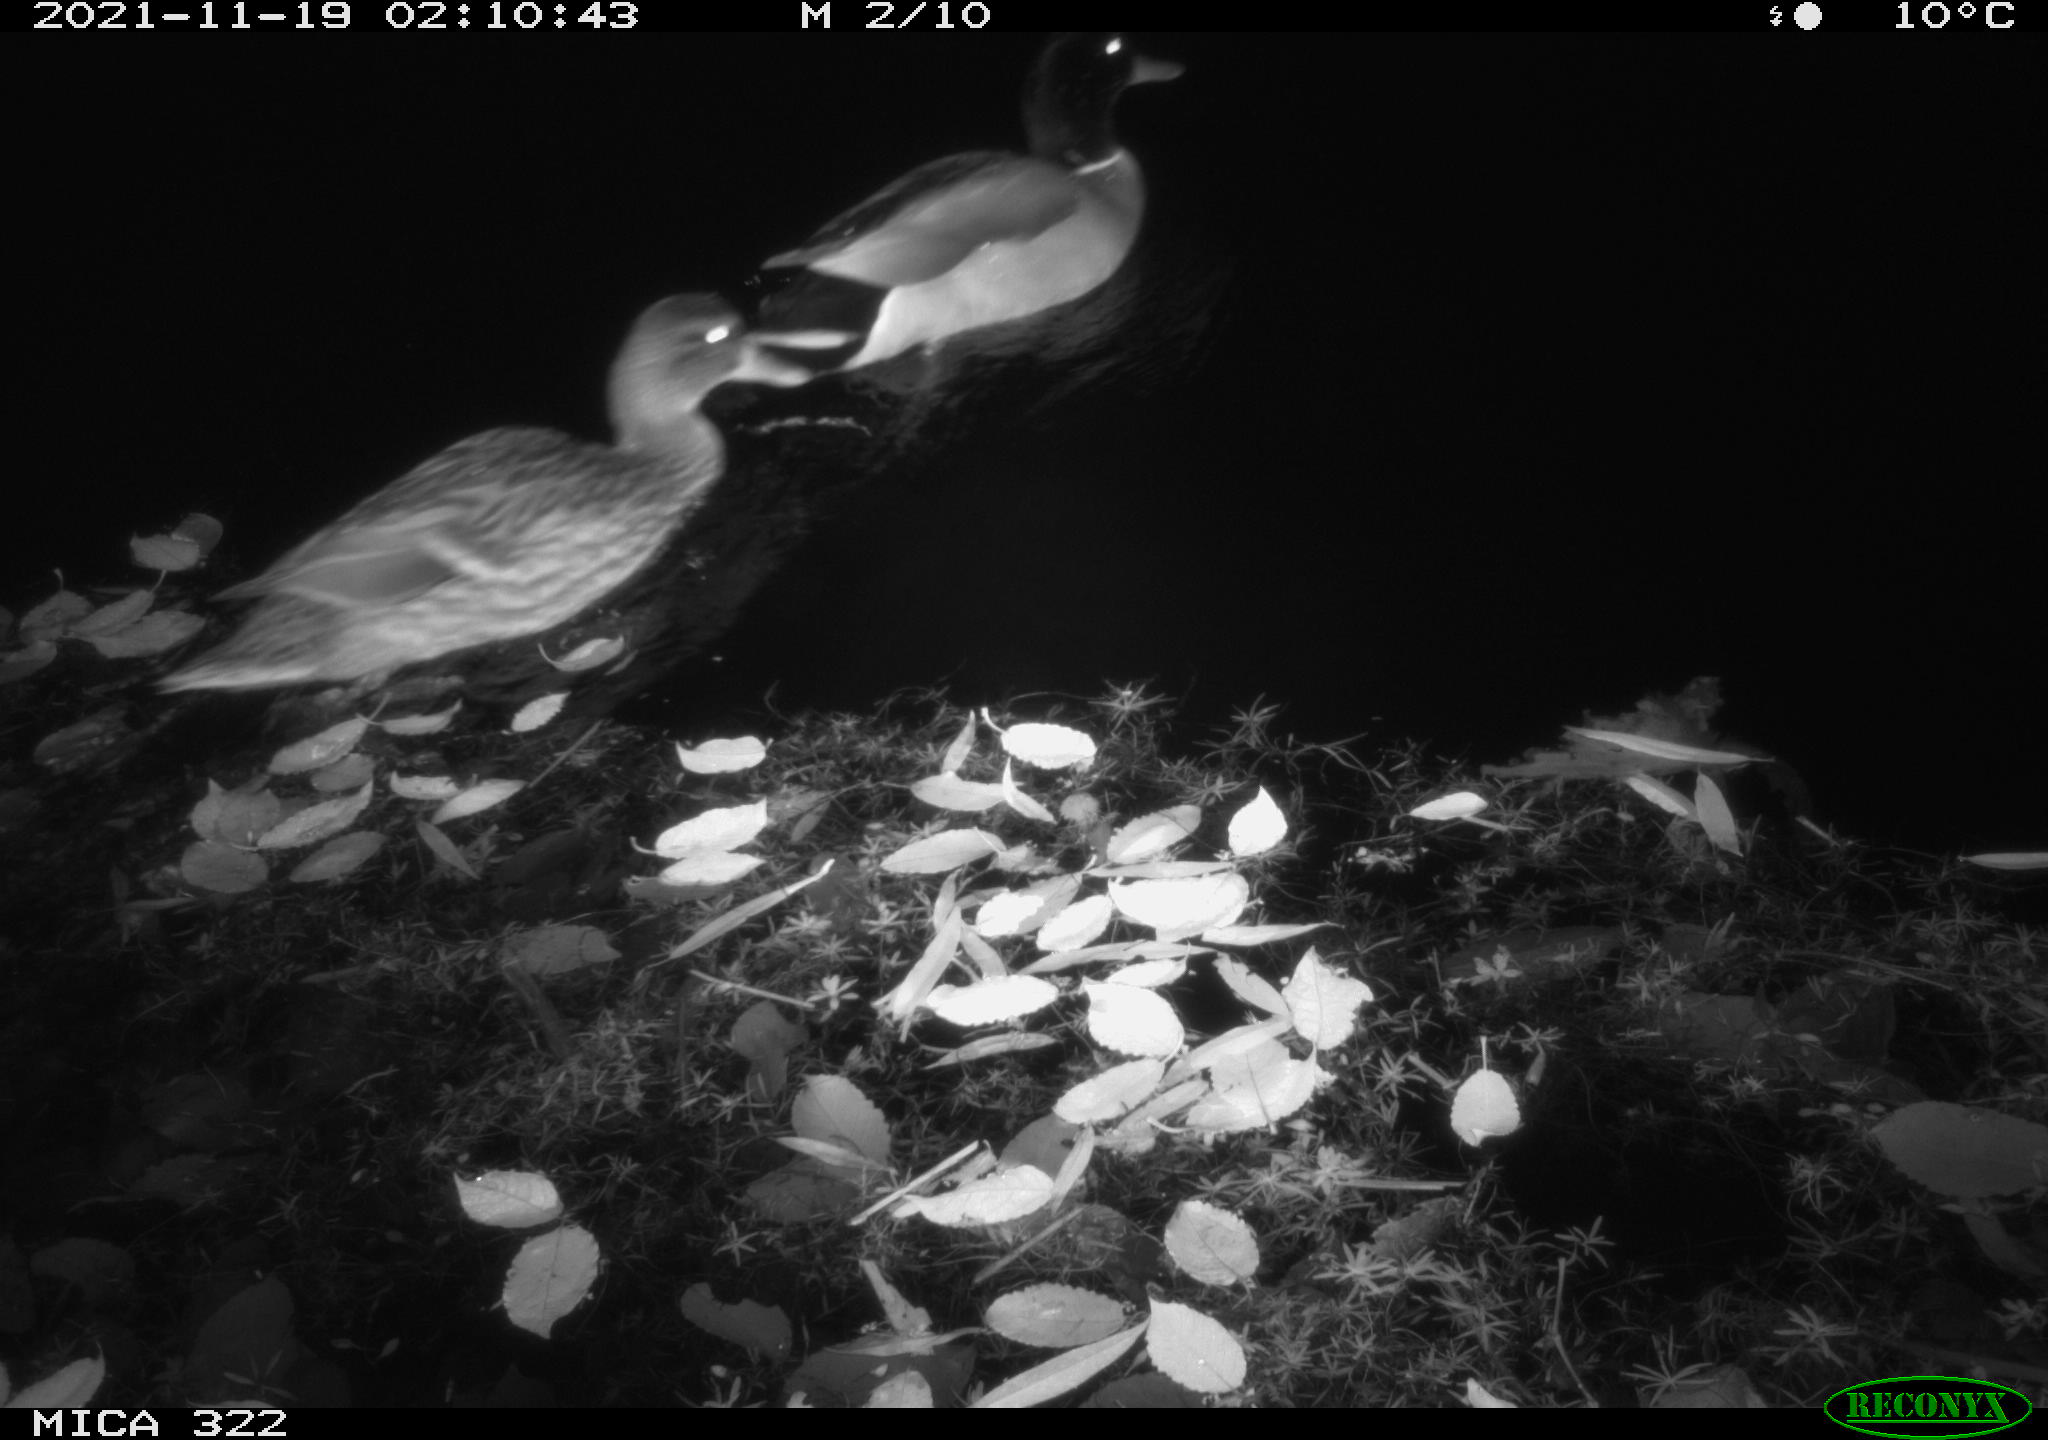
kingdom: Animalia
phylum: Chordata
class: Aves
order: Anseriformes
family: Anatidae
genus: Anas
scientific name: Anas platyrhynchos
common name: Mallard
